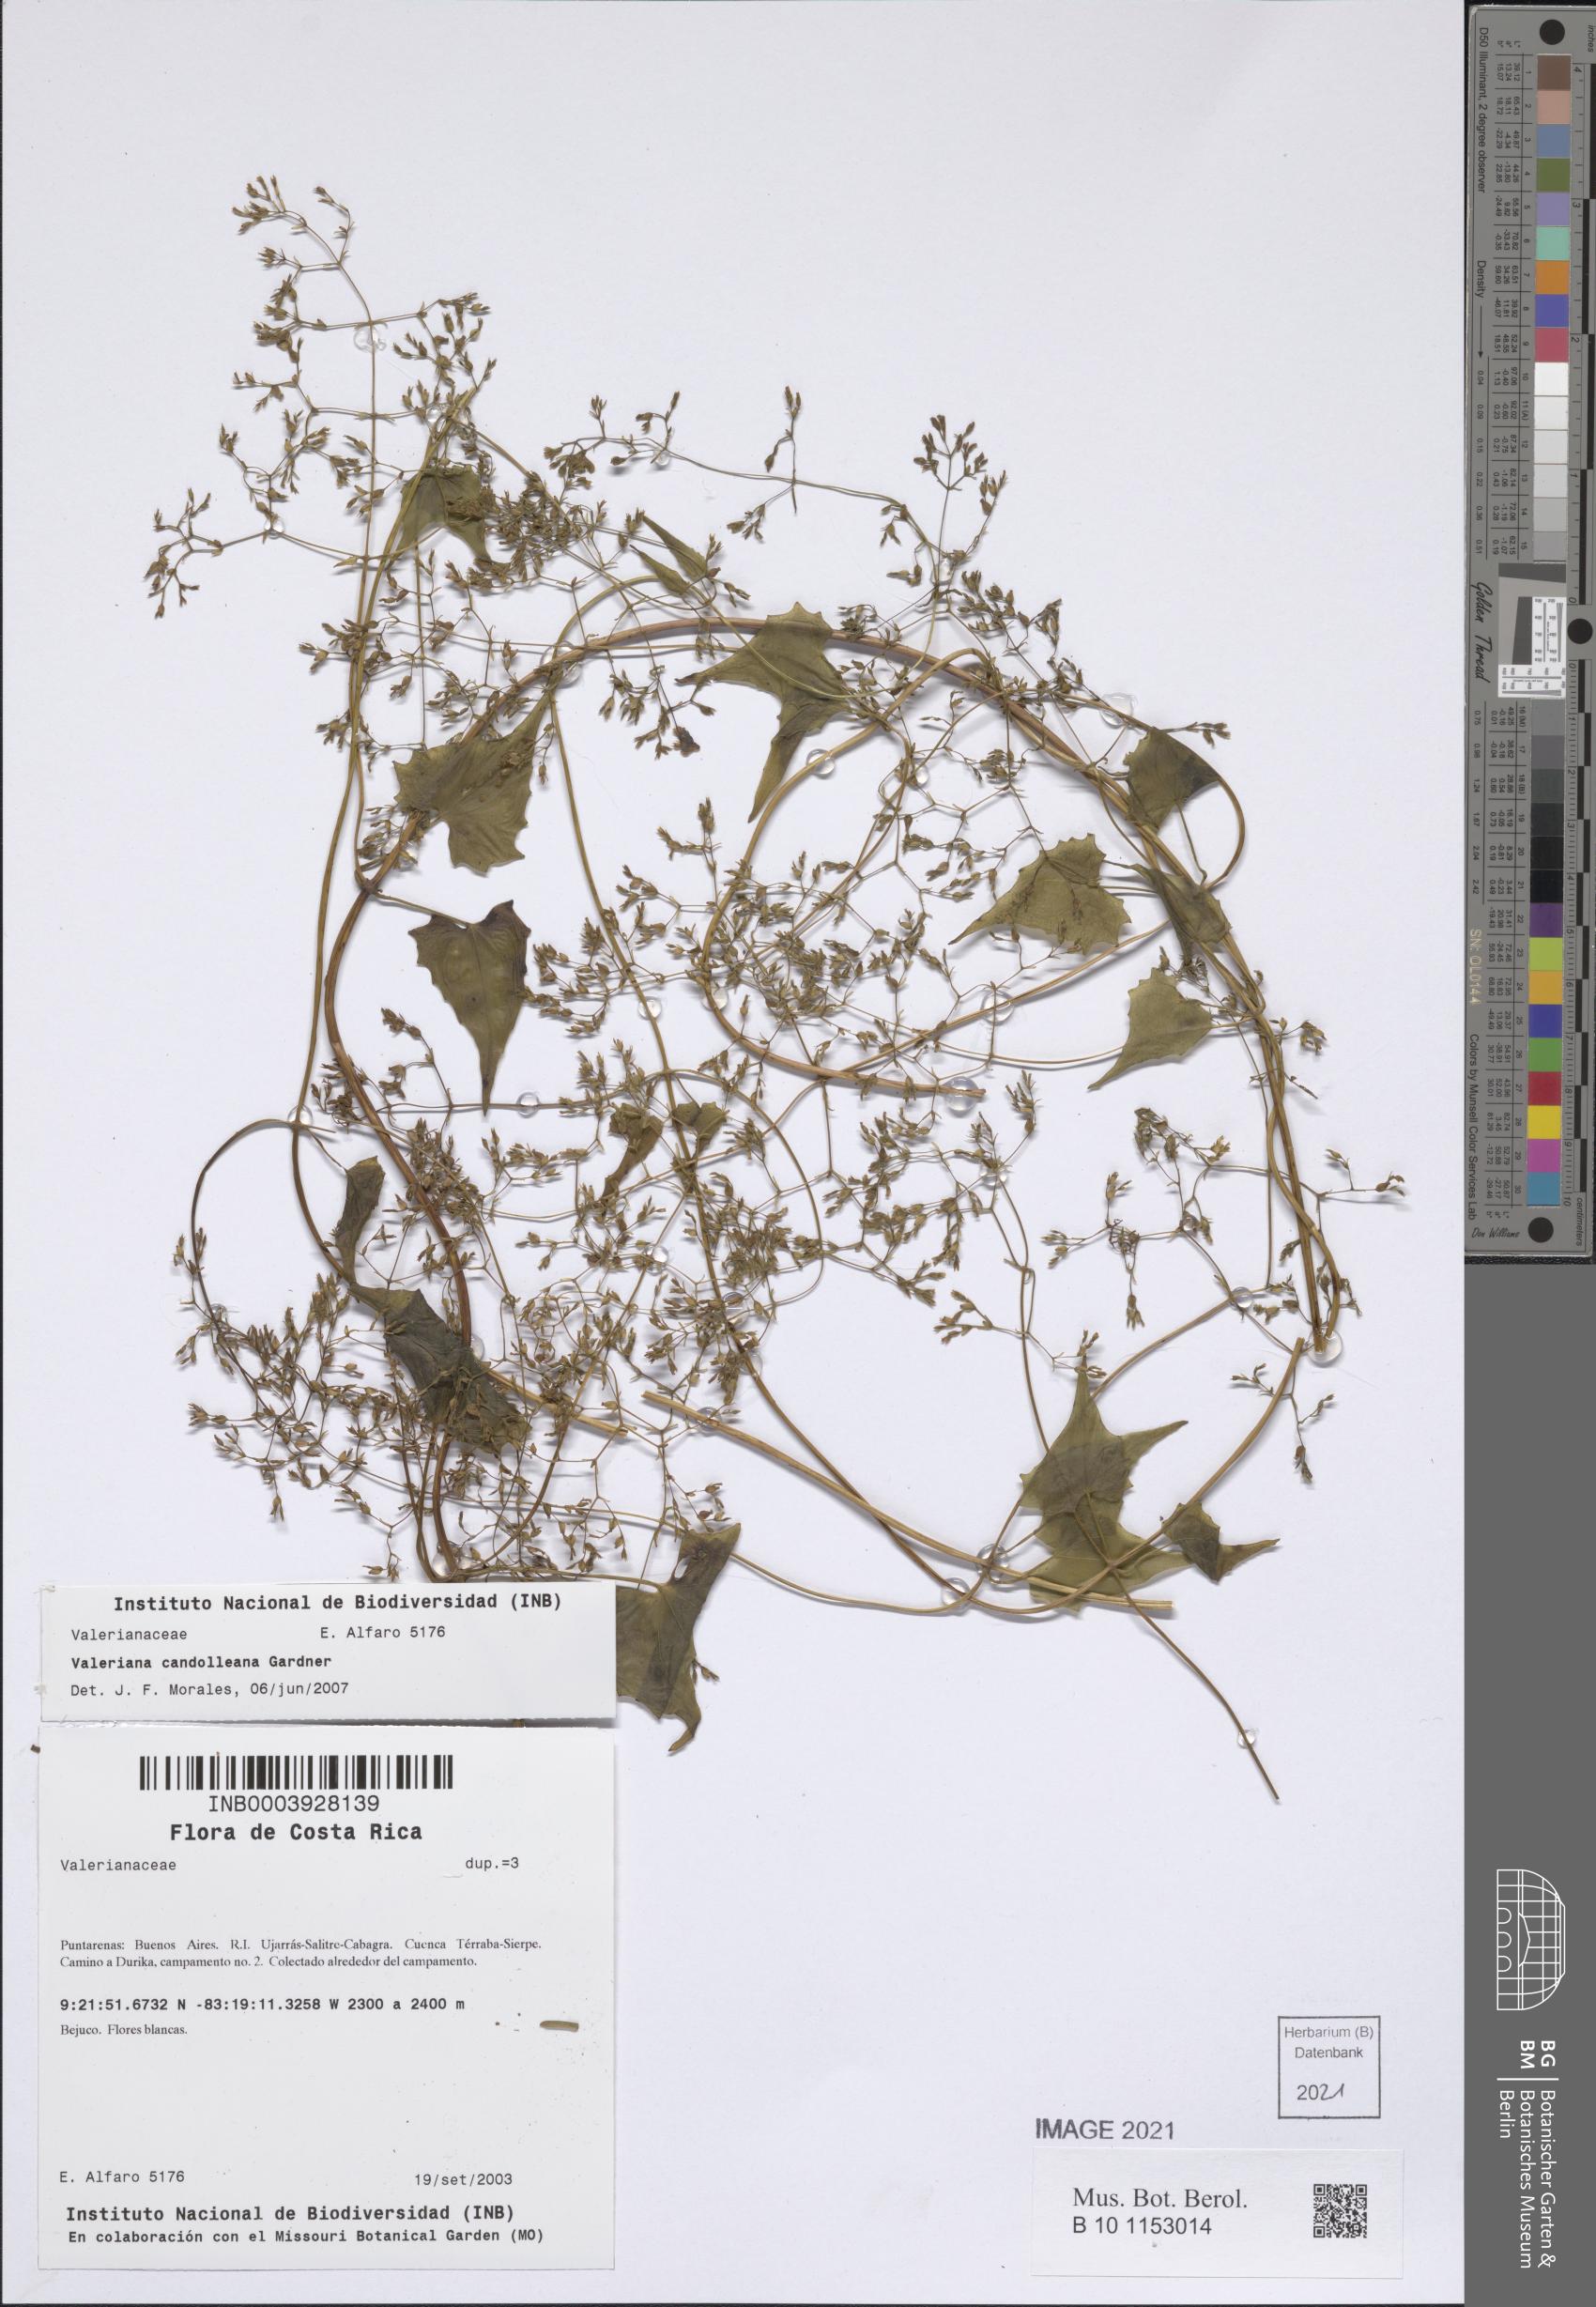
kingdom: Plantae
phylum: Tracheophyta
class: Magnoliopsida
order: Dipsacales
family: Caprifoliaceae
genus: Valeriana
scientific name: Valeriana candolleana
